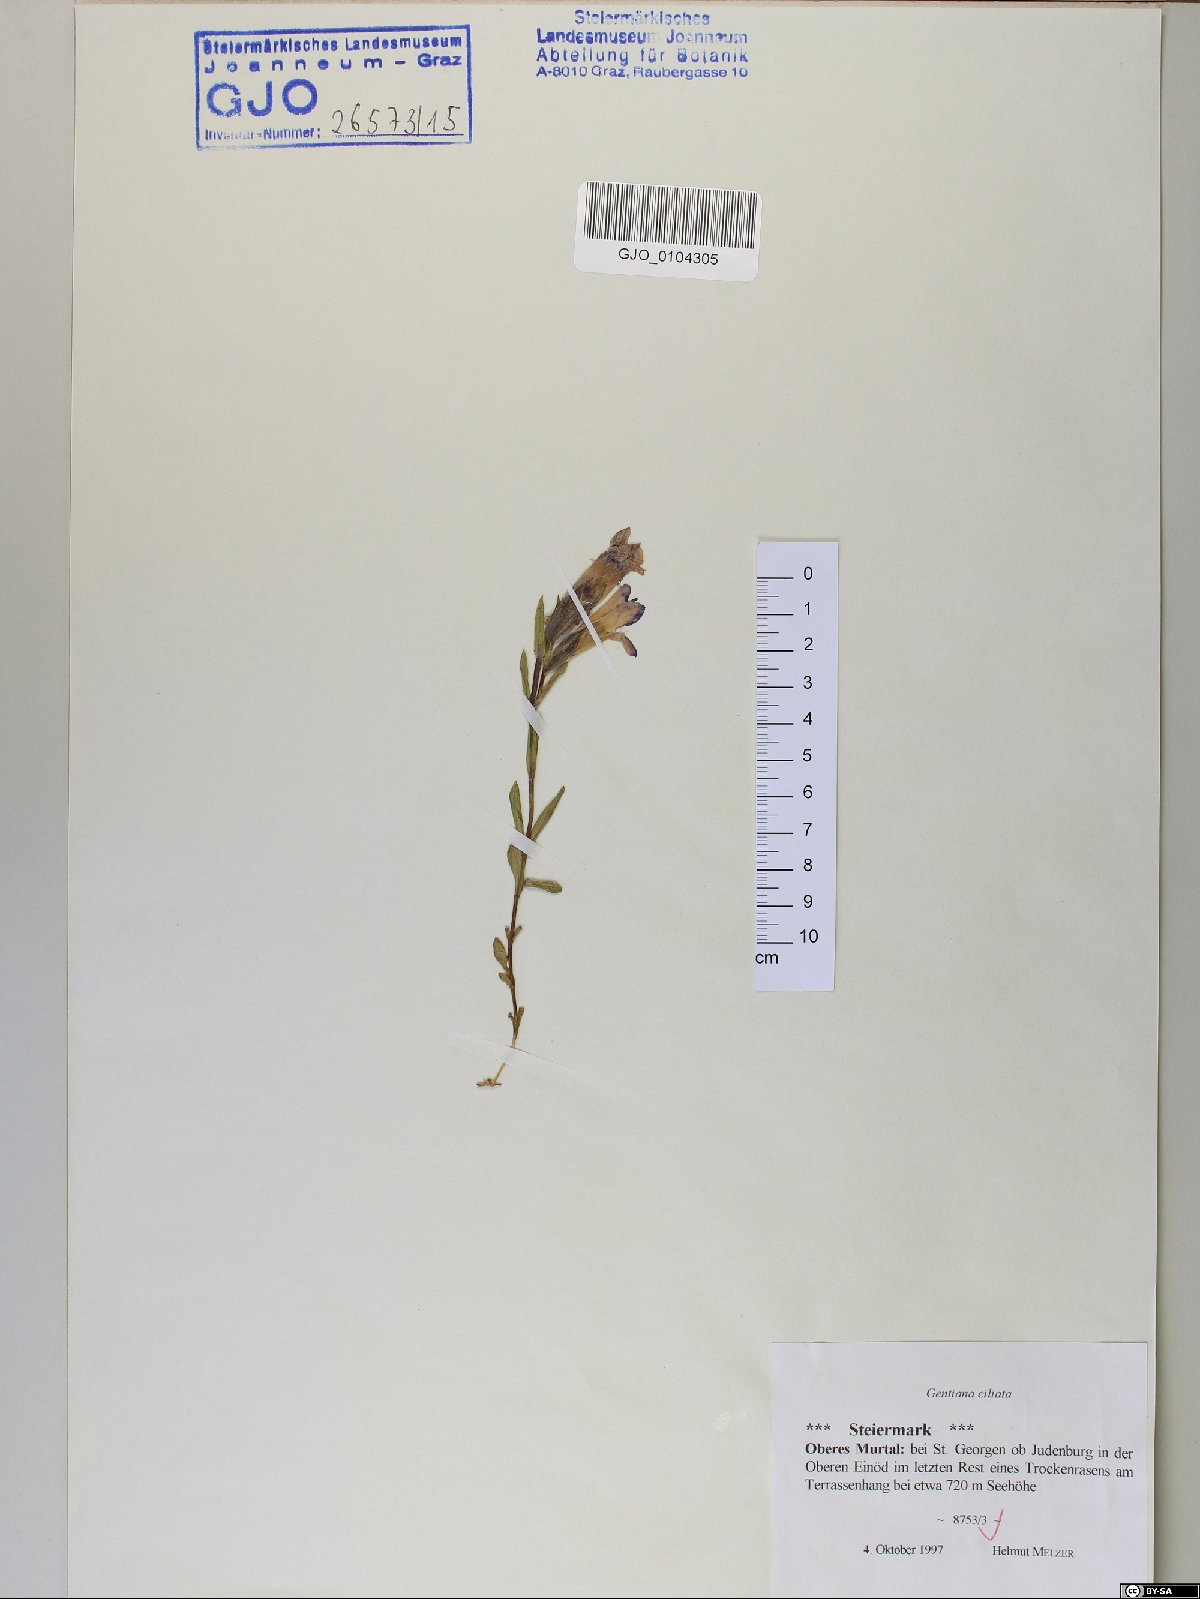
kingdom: Plantae
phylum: Tracheophyta
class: Magnoliopsida
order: Gentianales
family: Gentianaceae
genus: Gentianopsis
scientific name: Gentianopsis ciliata
